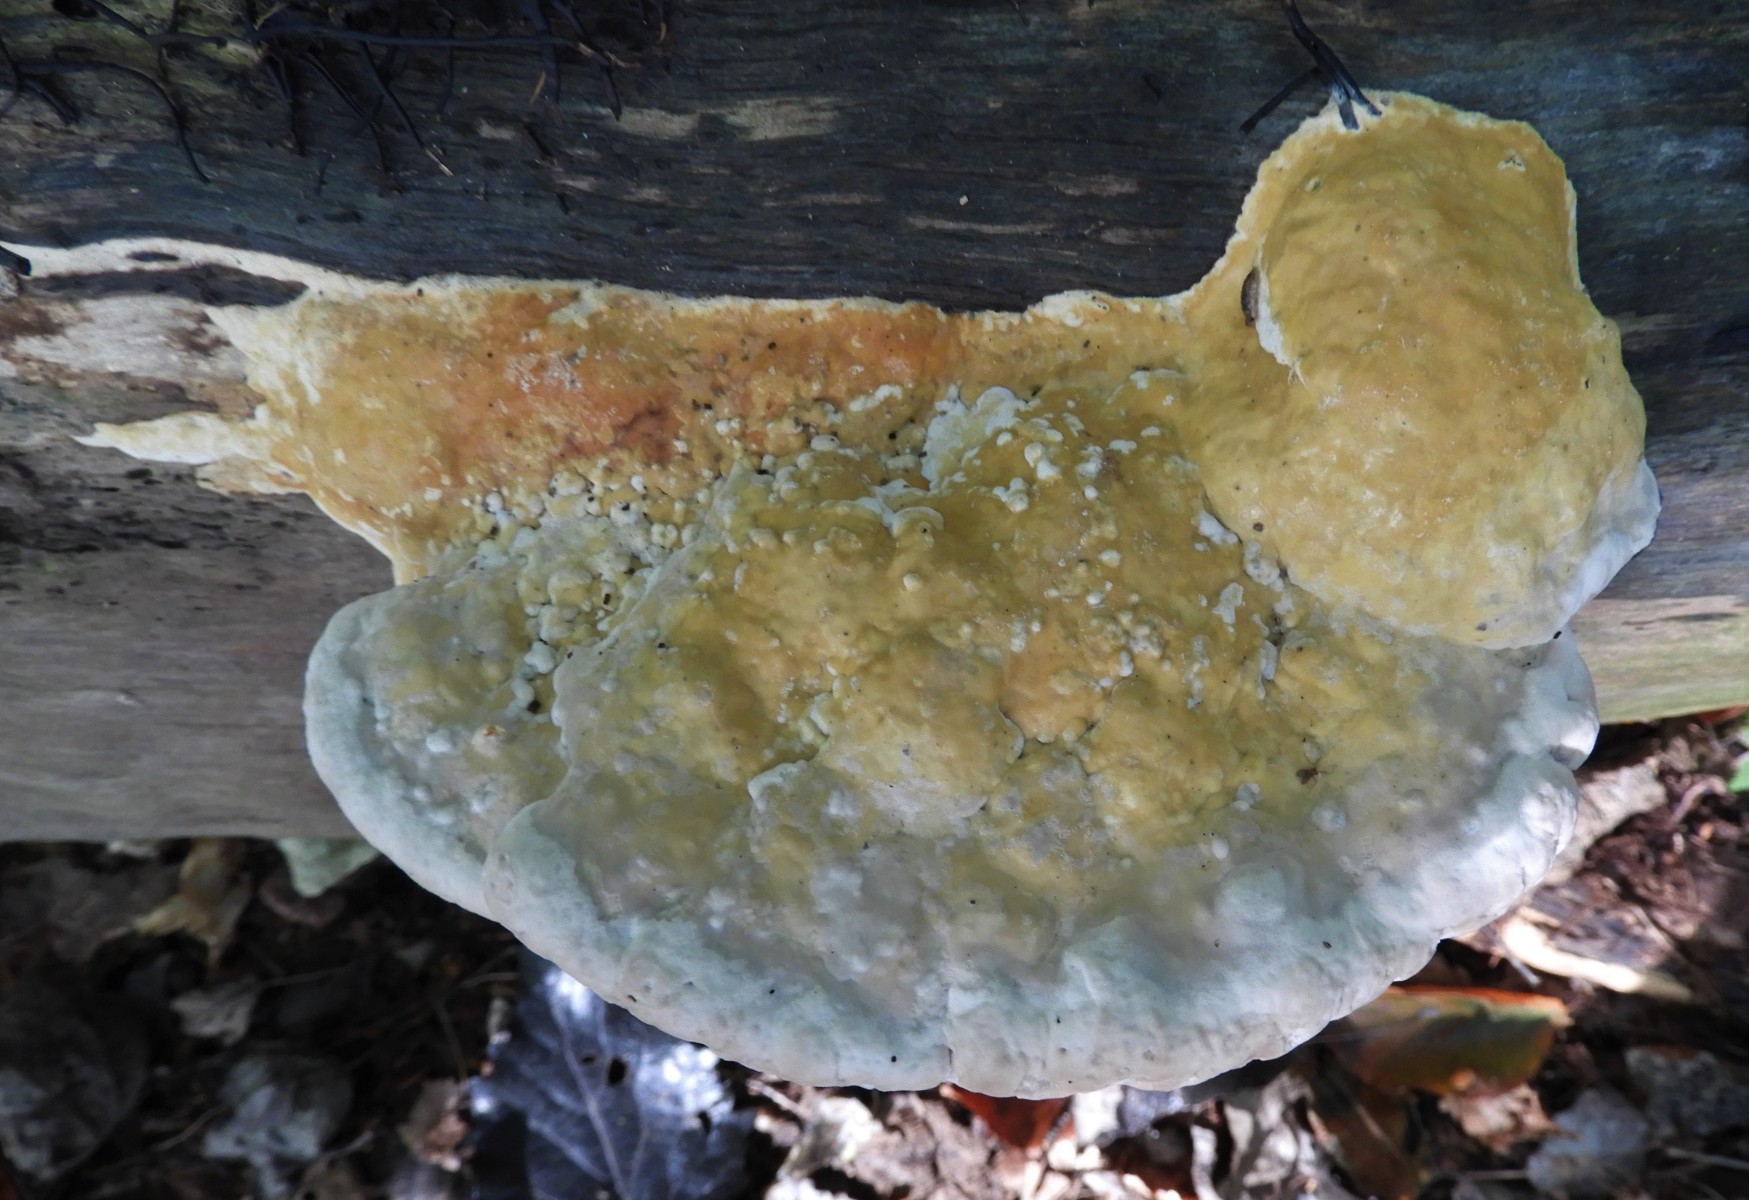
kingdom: Fungi
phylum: Basidiomycota
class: Agaricomycetes
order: Polyporales
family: Fomitopsidaceae
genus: Fomitopsis
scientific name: Fomitopsis pinicola
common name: randbæltet hovporesvamp
